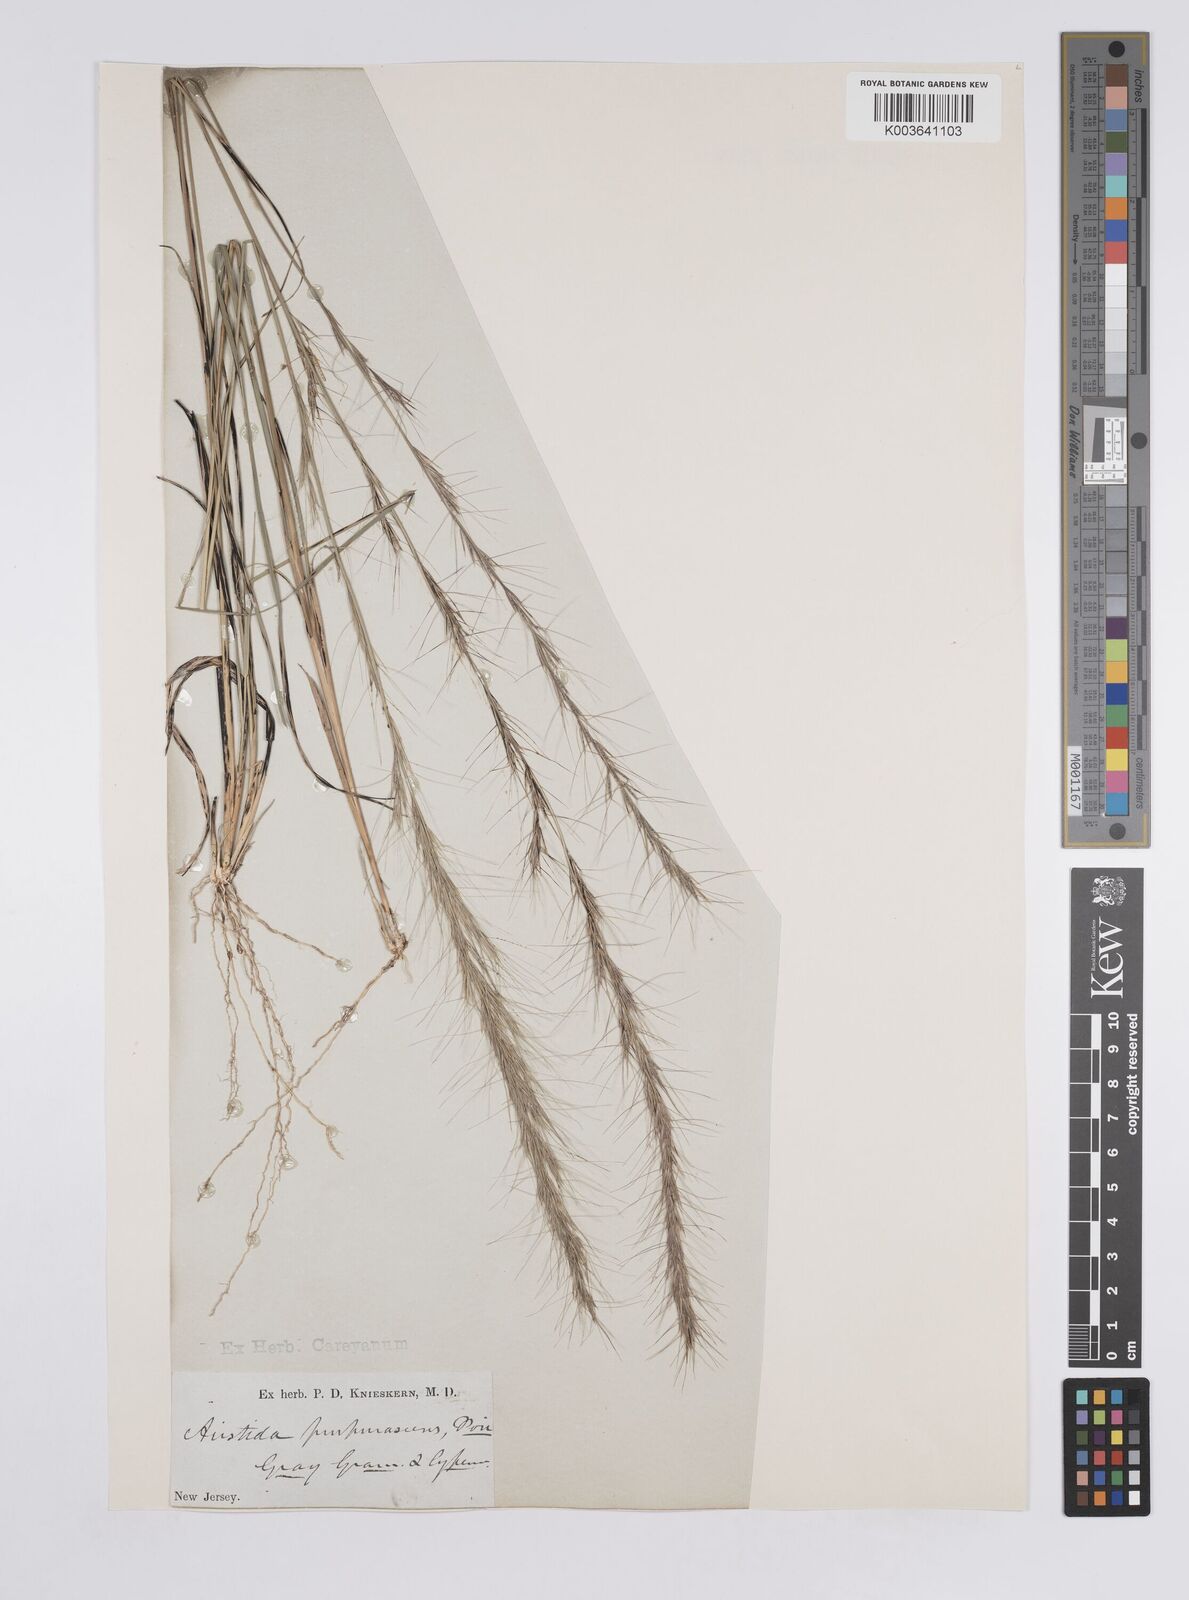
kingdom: Plantae
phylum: Tracheophyta
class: Liliopsida
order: Poales
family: Poaceae
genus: Aristida
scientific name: Aristida purpurascens
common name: Arrow-feather
